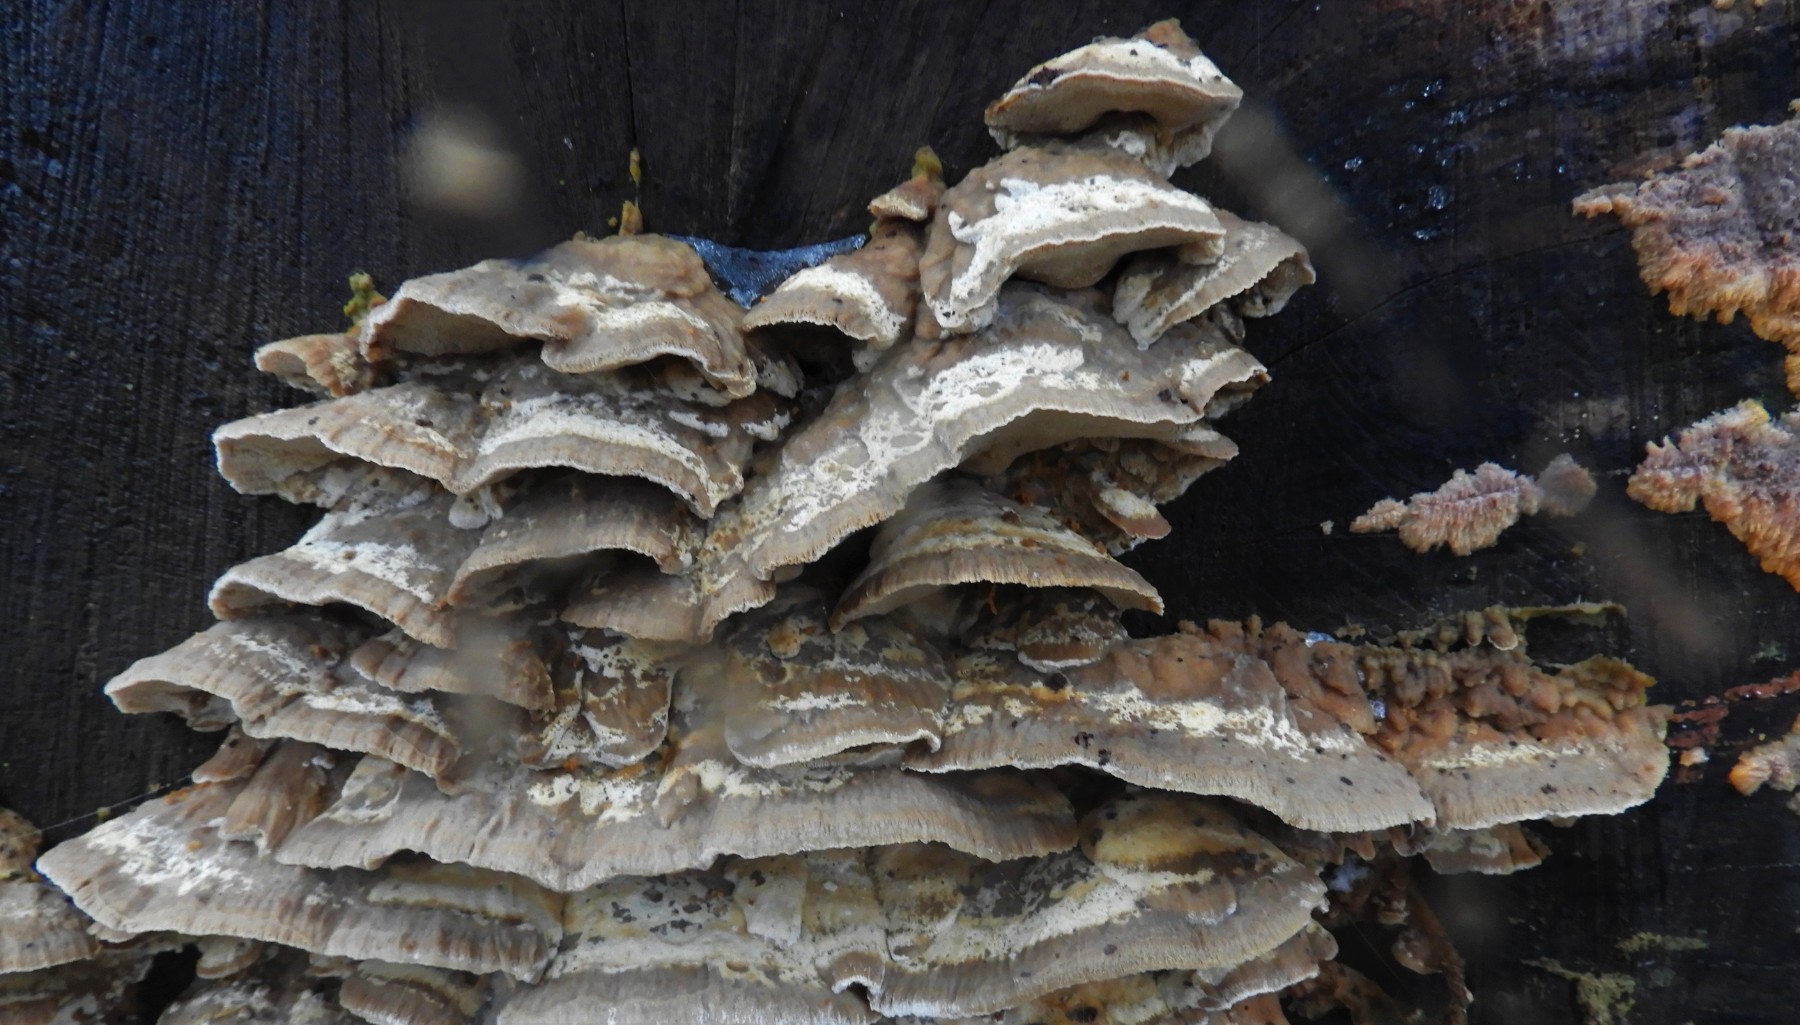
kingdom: Fungi
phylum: Basidiomycota
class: Agaricomycetes
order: Polyporales
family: Phanerochaetaceae
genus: Bjerkandera
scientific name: Bjerkandera fumosa
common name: grågul sodporesvamp
